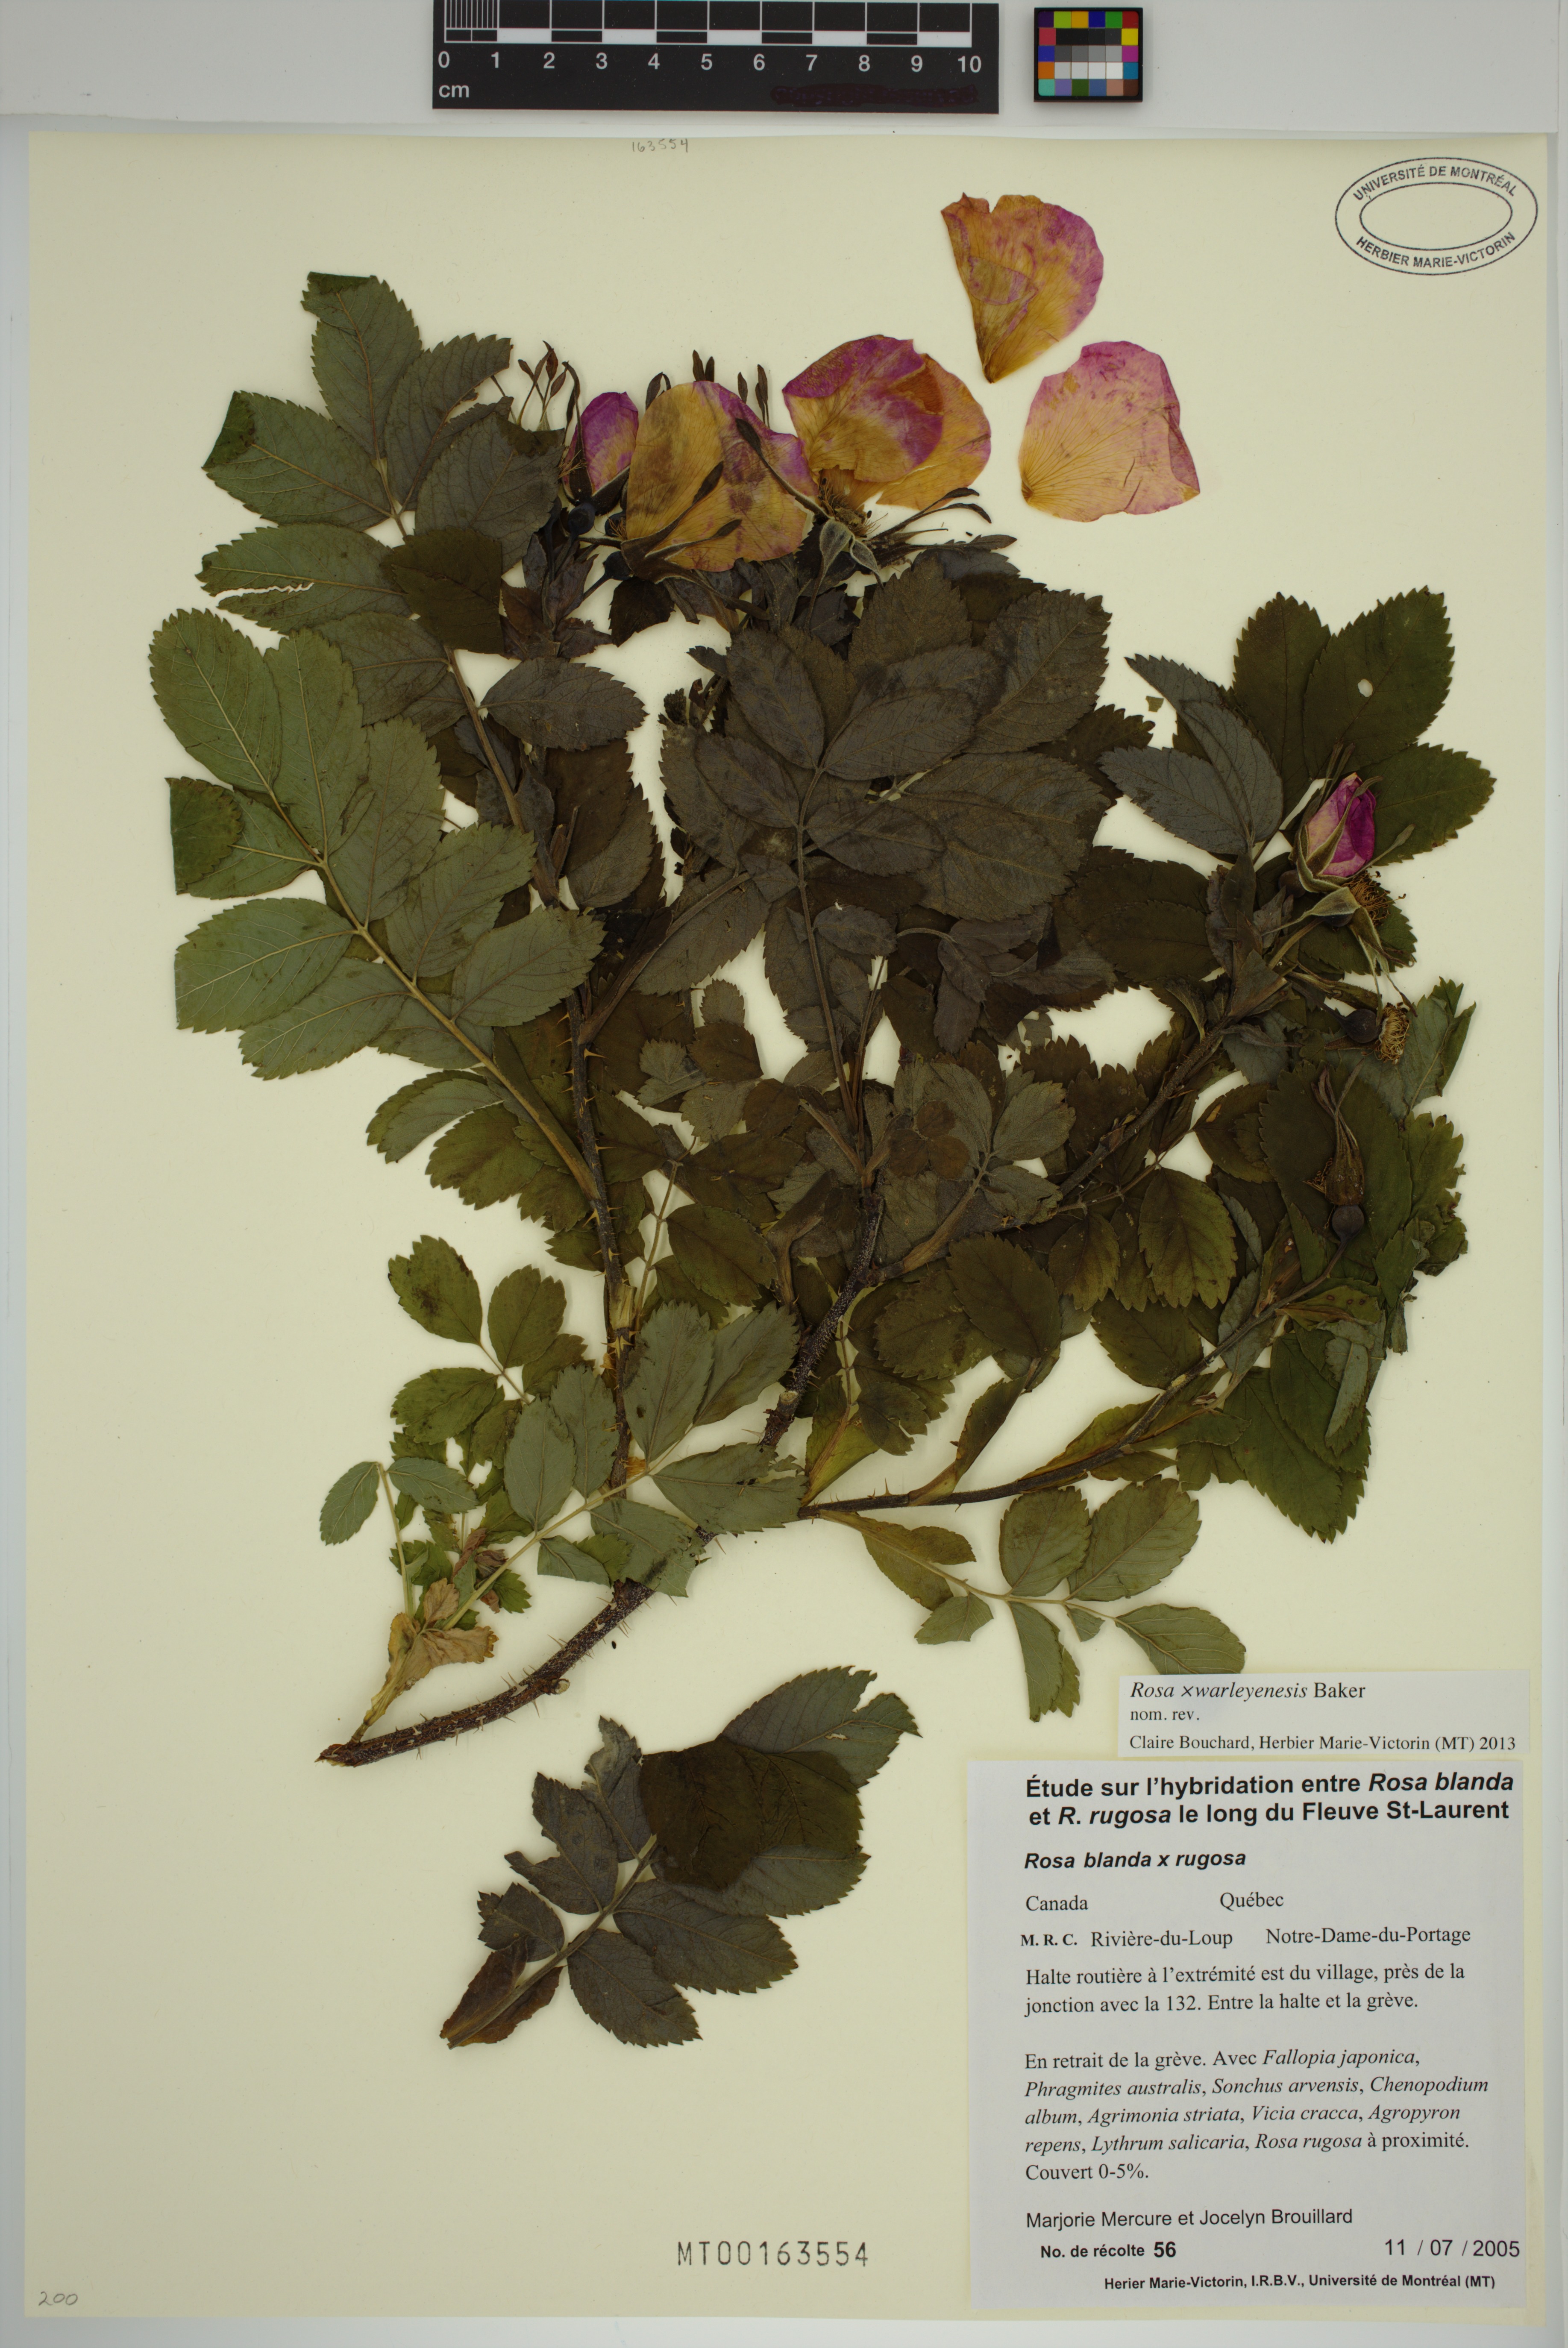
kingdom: Plantae
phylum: Tracheophyta
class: Magnoliopsida
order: Rosales
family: Rosaceae
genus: Rosa
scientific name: Rosa warleyensis
